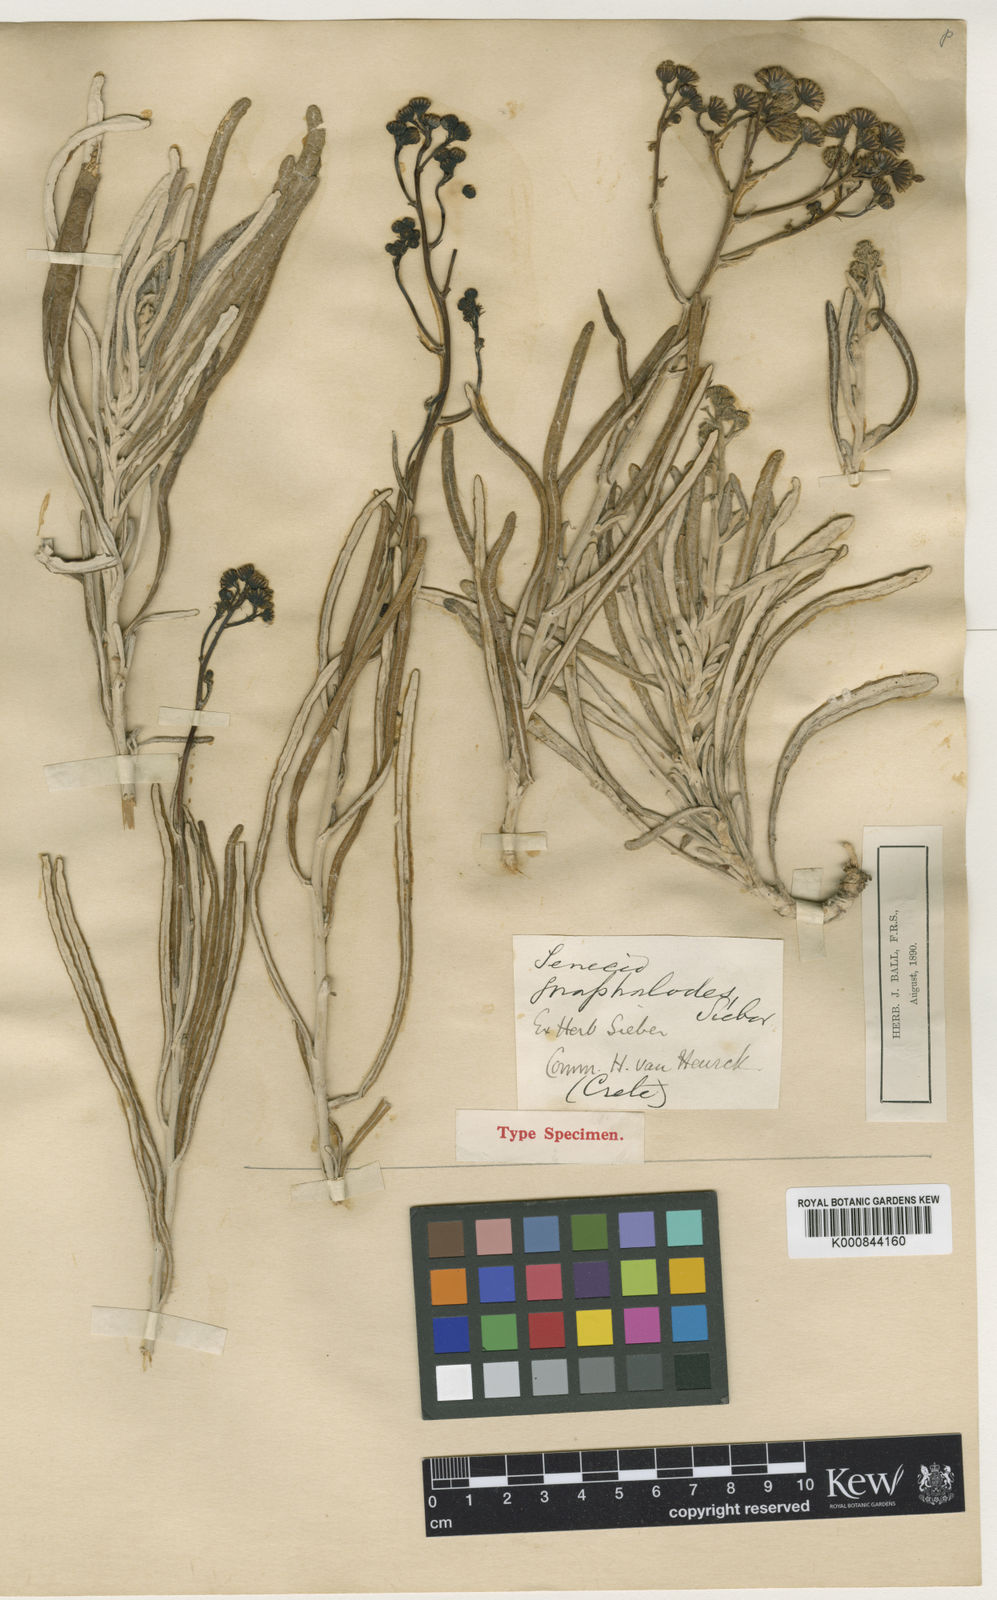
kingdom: Plantae
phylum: Tracheophyta
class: Magnoliopsida
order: Asterales
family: Asteraceae
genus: Jacobaea
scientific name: Jacobaea gnaphalioides
